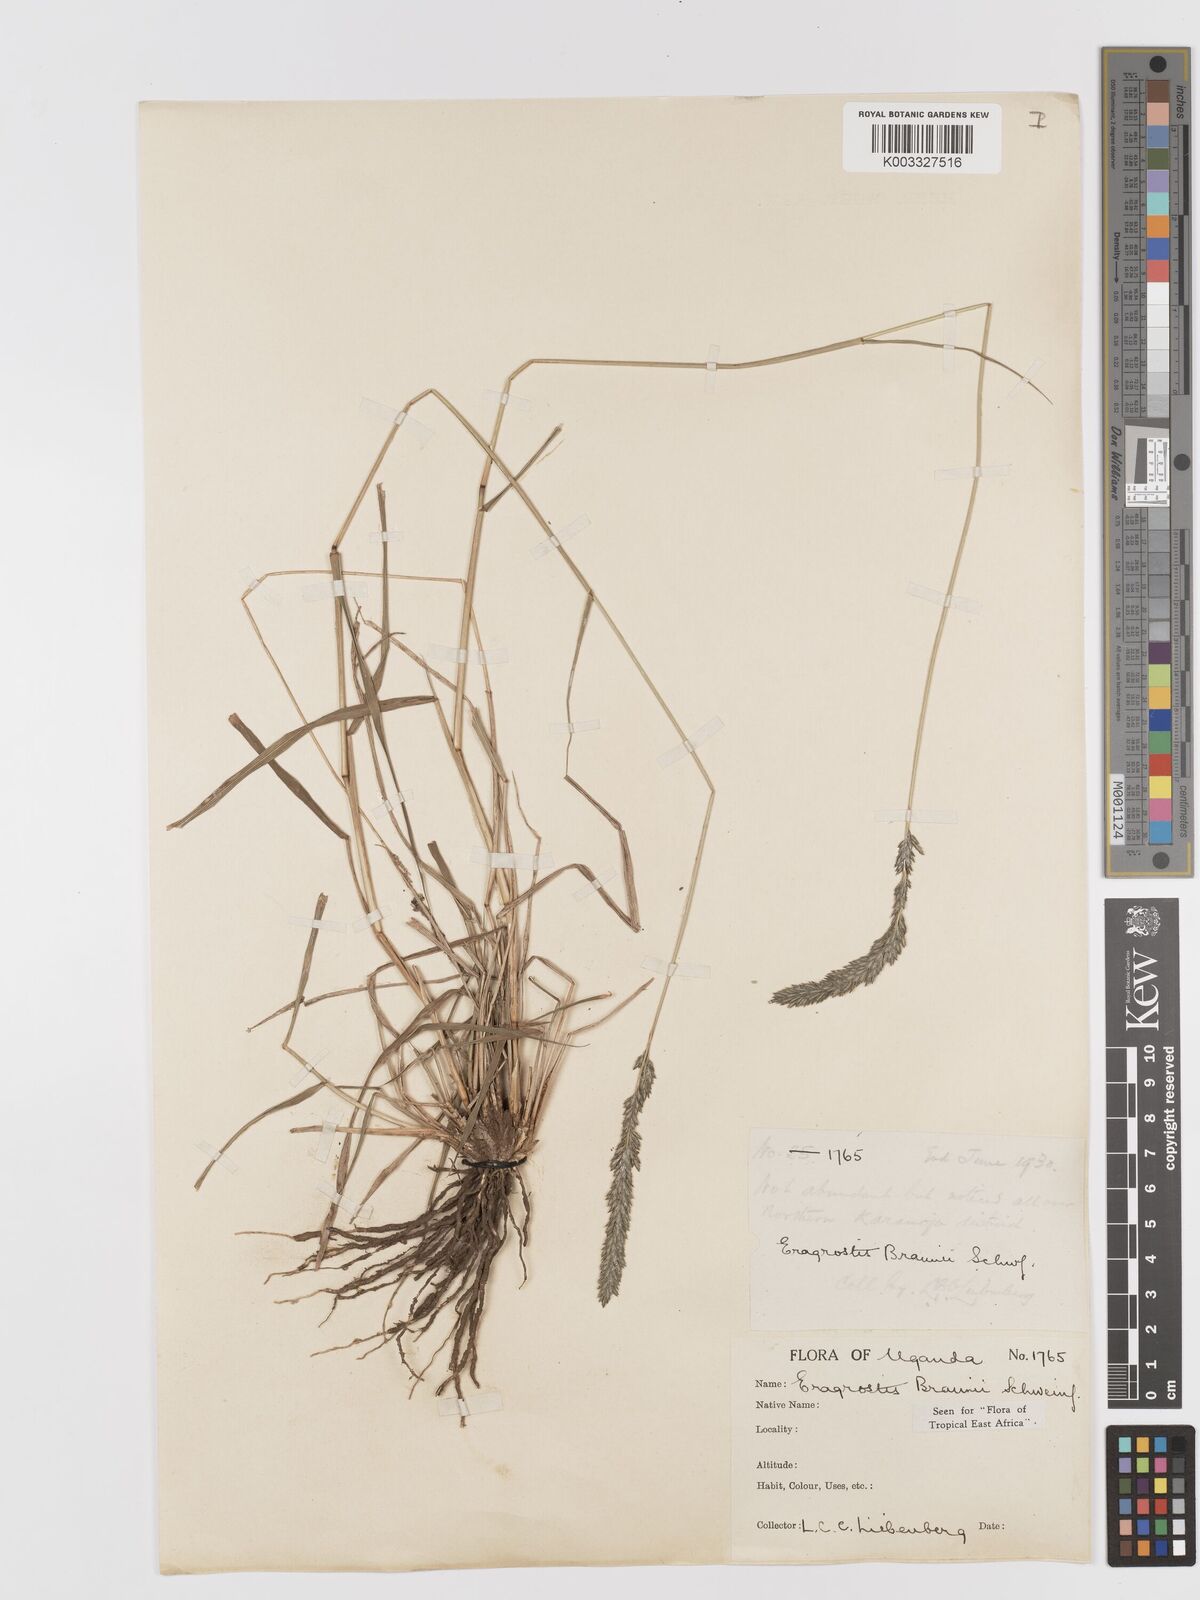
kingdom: Plantae
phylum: Tracheophyta
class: Liliopsida
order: Poales
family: Poaceae
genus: Eragrostis
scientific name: Eragrostis braunii
